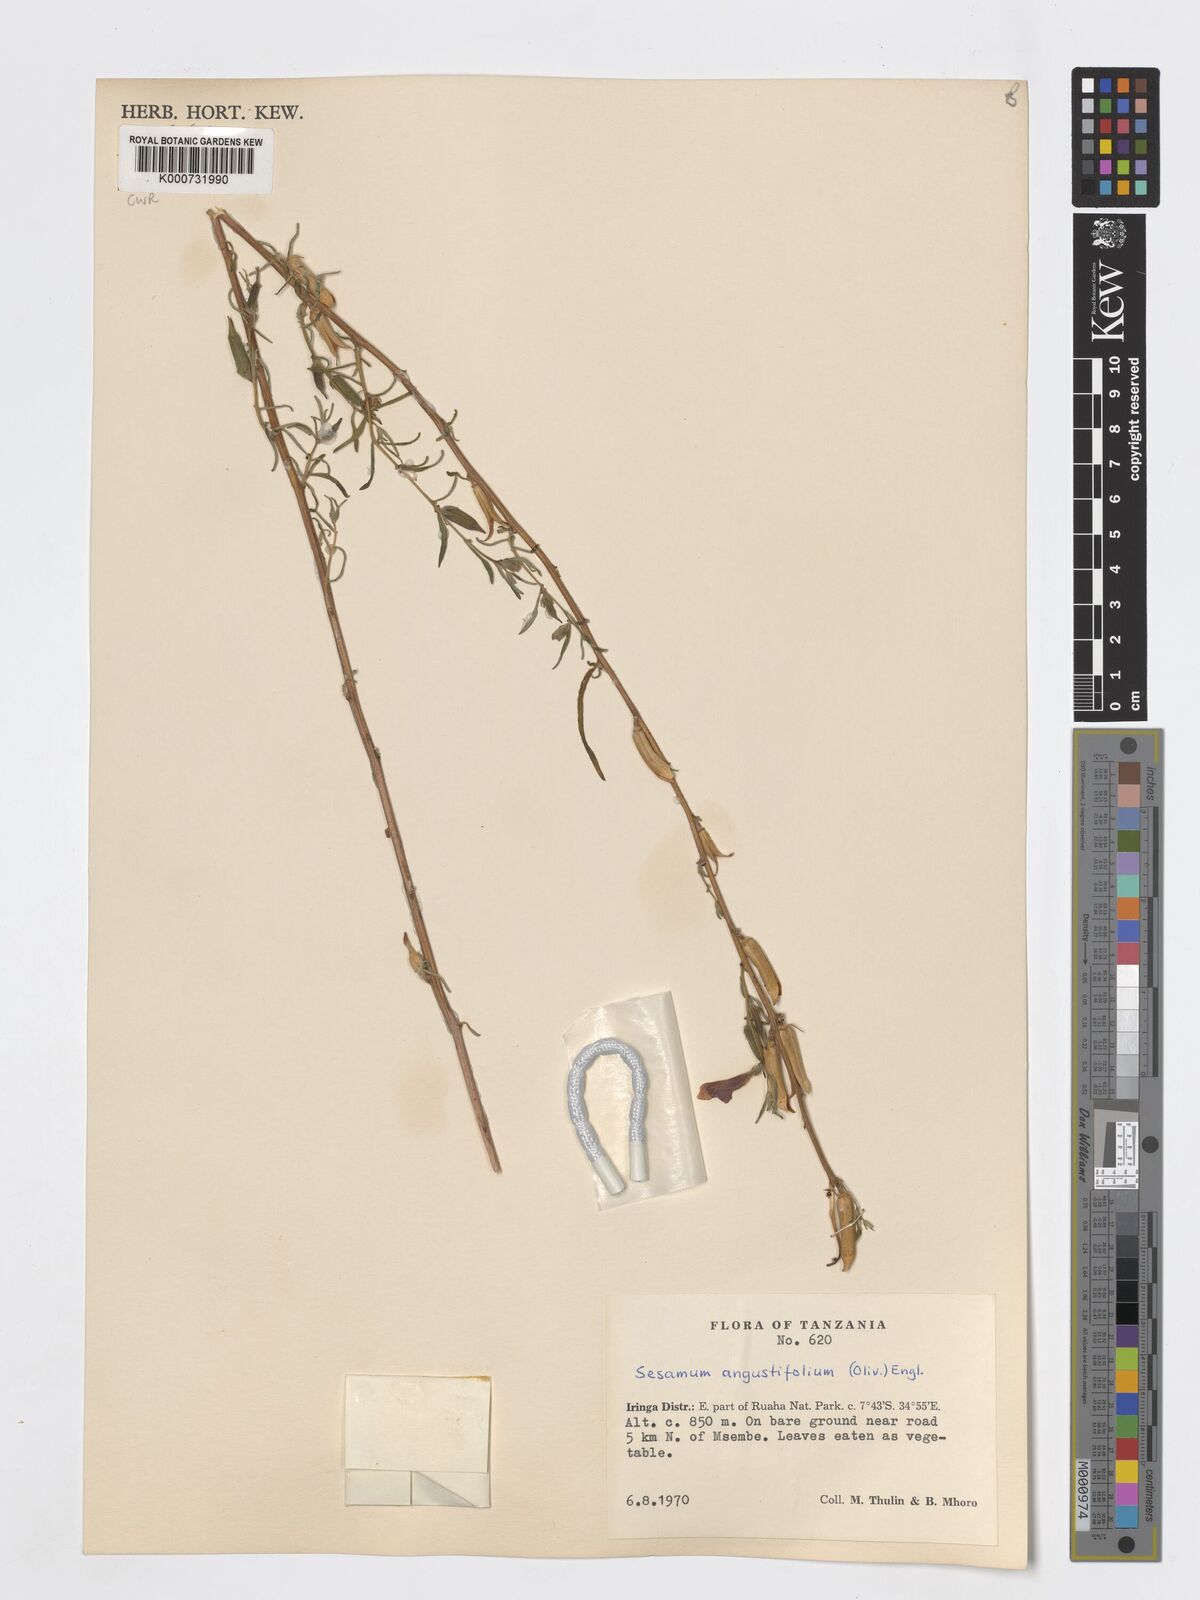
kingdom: Plantae
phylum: Tracheophyta
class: Magnoliopsida
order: Lamiales
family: Pedaliaceae
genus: Sesamum
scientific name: Sesamum angustifolium
